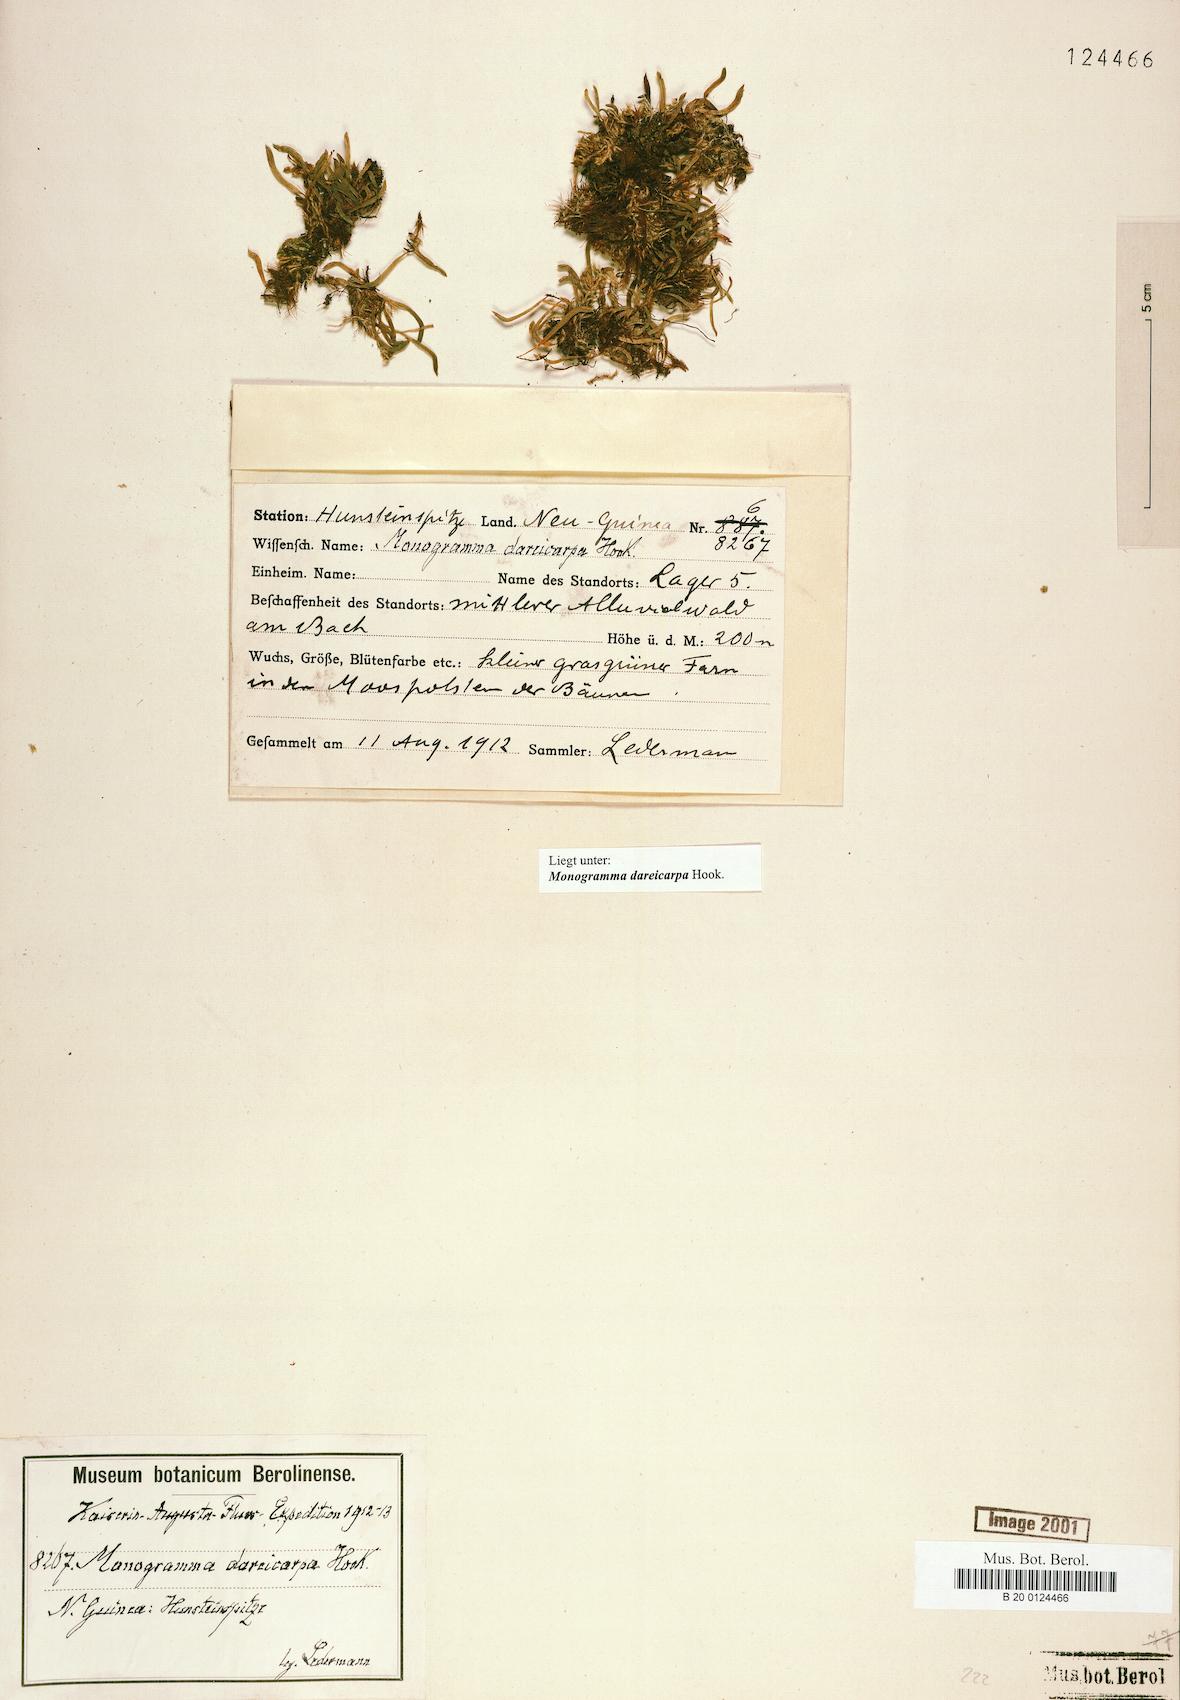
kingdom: Plantae
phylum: Tracheophyta
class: Polypodiopsida
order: Polypodiales
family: Pteridaceae
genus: Haplopteris
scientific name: Haplopteris dareicarpa
